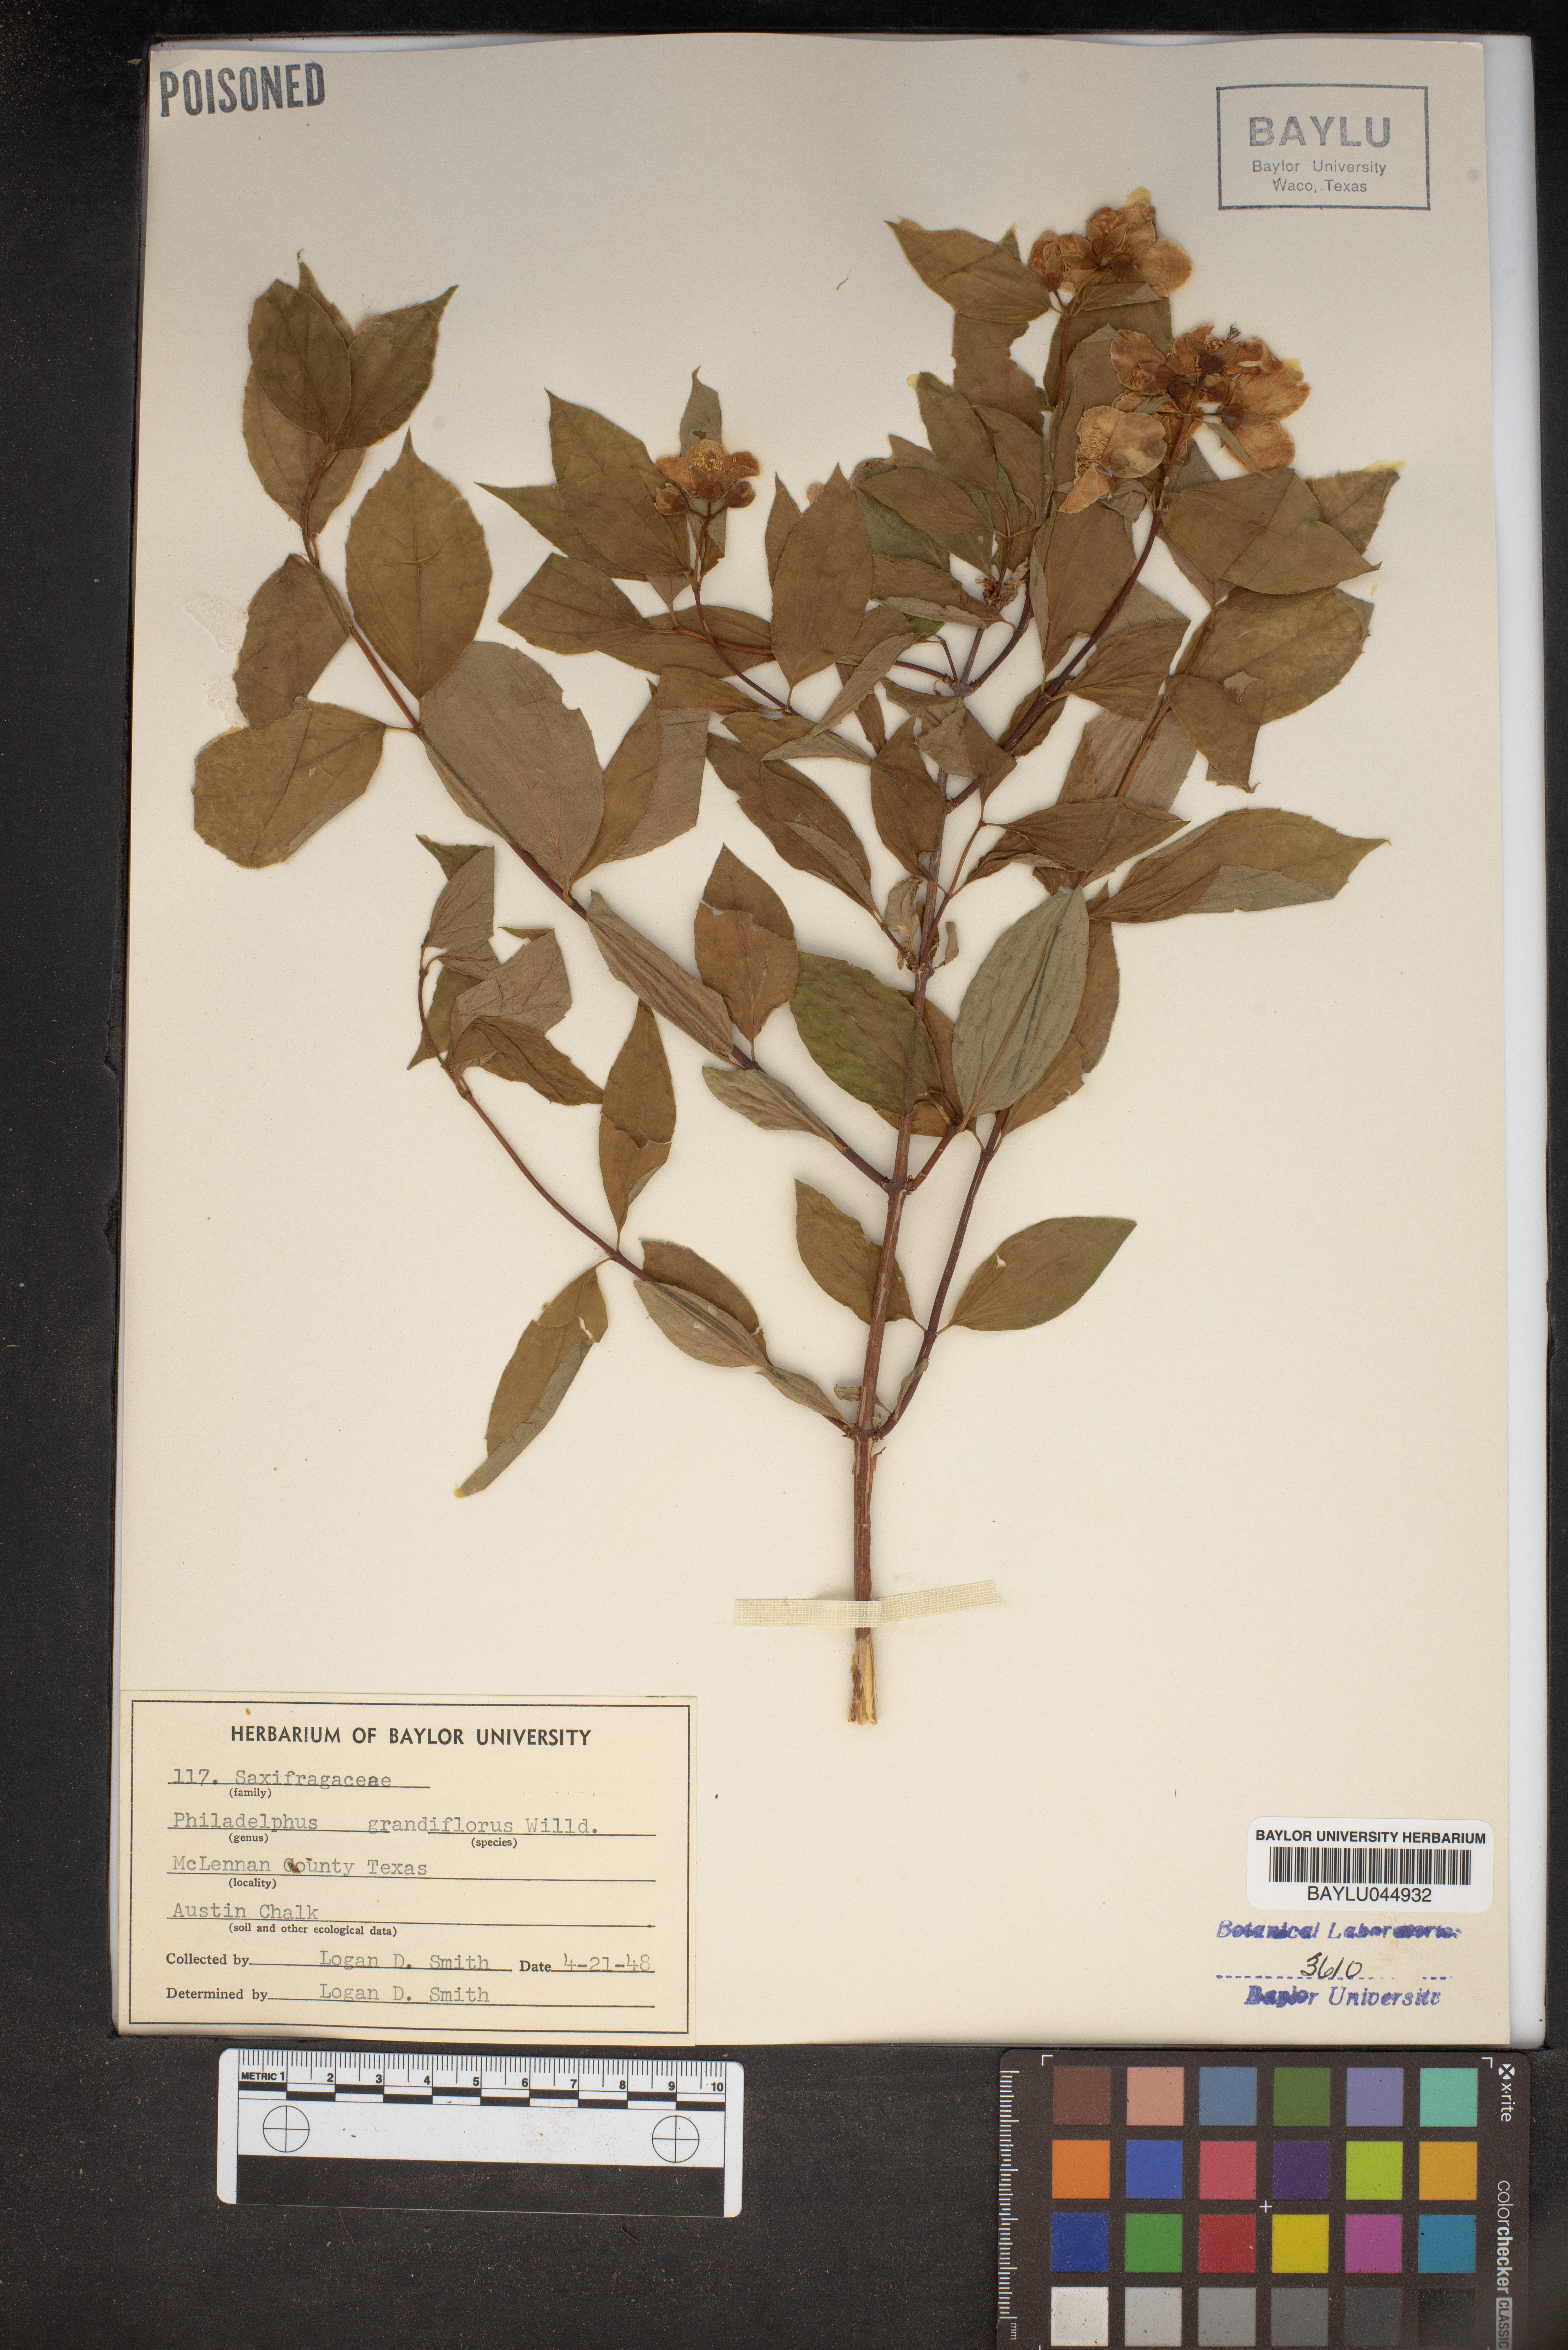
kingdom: Plantae
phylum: Tracheophyta
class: Magnoliopsida
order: Cornales
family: Hydrangeaceae
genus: Philadelphus
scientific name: Philadelphus inodorus
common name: Scentless mock-orange
